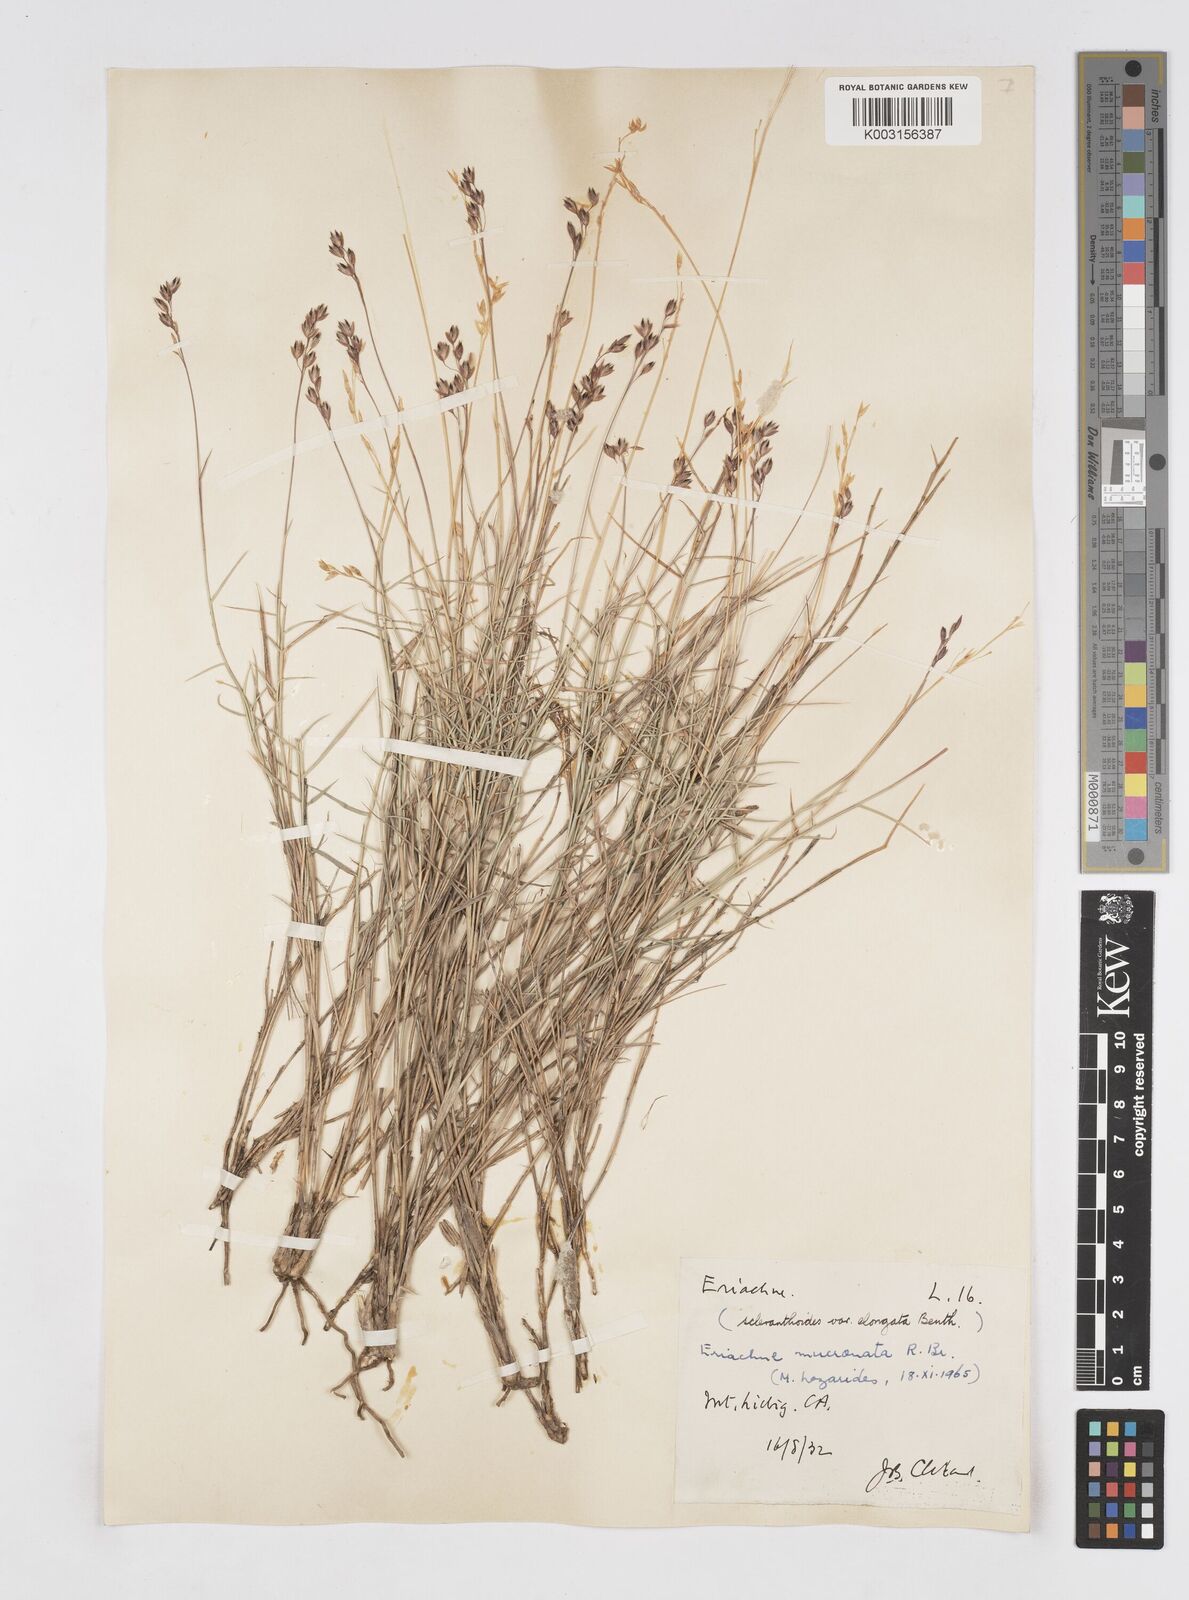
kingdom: Plantae
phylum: Tracheophyta
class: Liliopsida
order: Poales
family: Poaceae
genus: Eriachne
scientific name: Eriachne mucronata
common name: Mountain wanderrie grass
